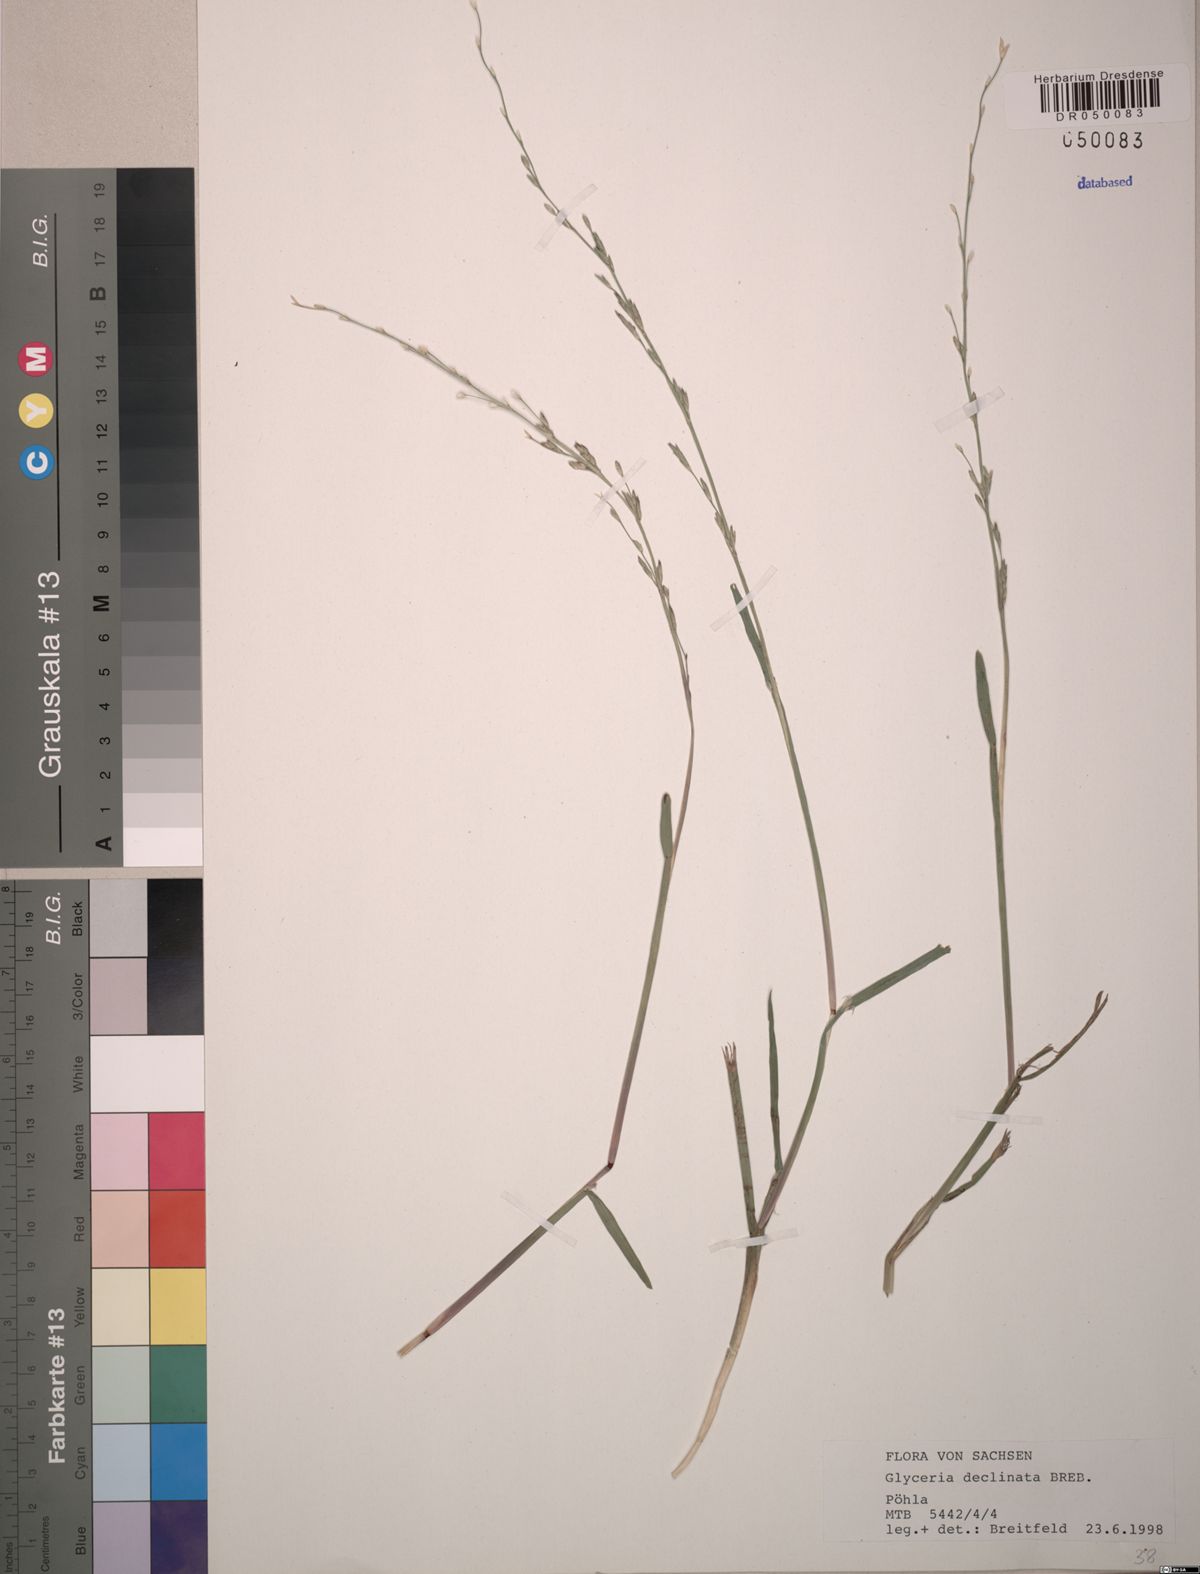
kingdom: Plantae
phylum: Tracheophyta
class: Liliopsida
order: Poales
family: Poaceae
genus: Glyceria
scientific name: Glyceria declinata
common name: Small sweet-grass
